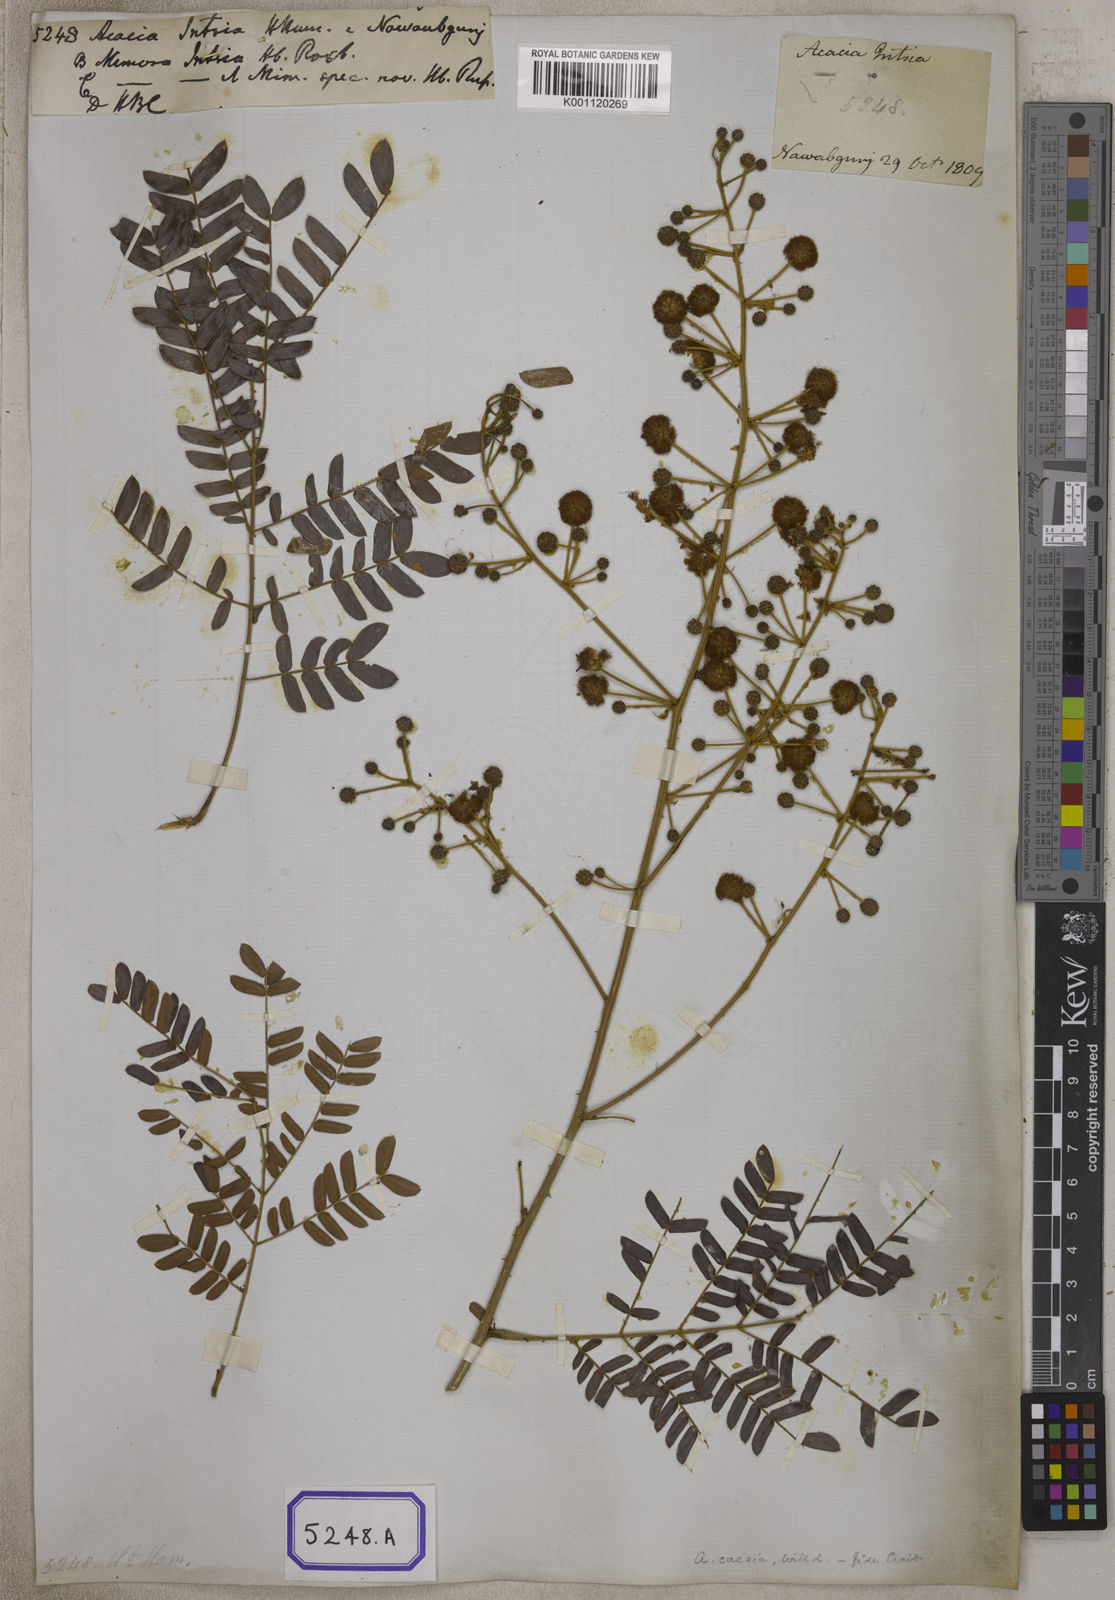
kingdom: Plantae
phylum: Tracheophyta
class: Magnoliopsida
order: Fabales
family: Fabaceae
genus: Senegalia
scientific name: Senegalia intsia
